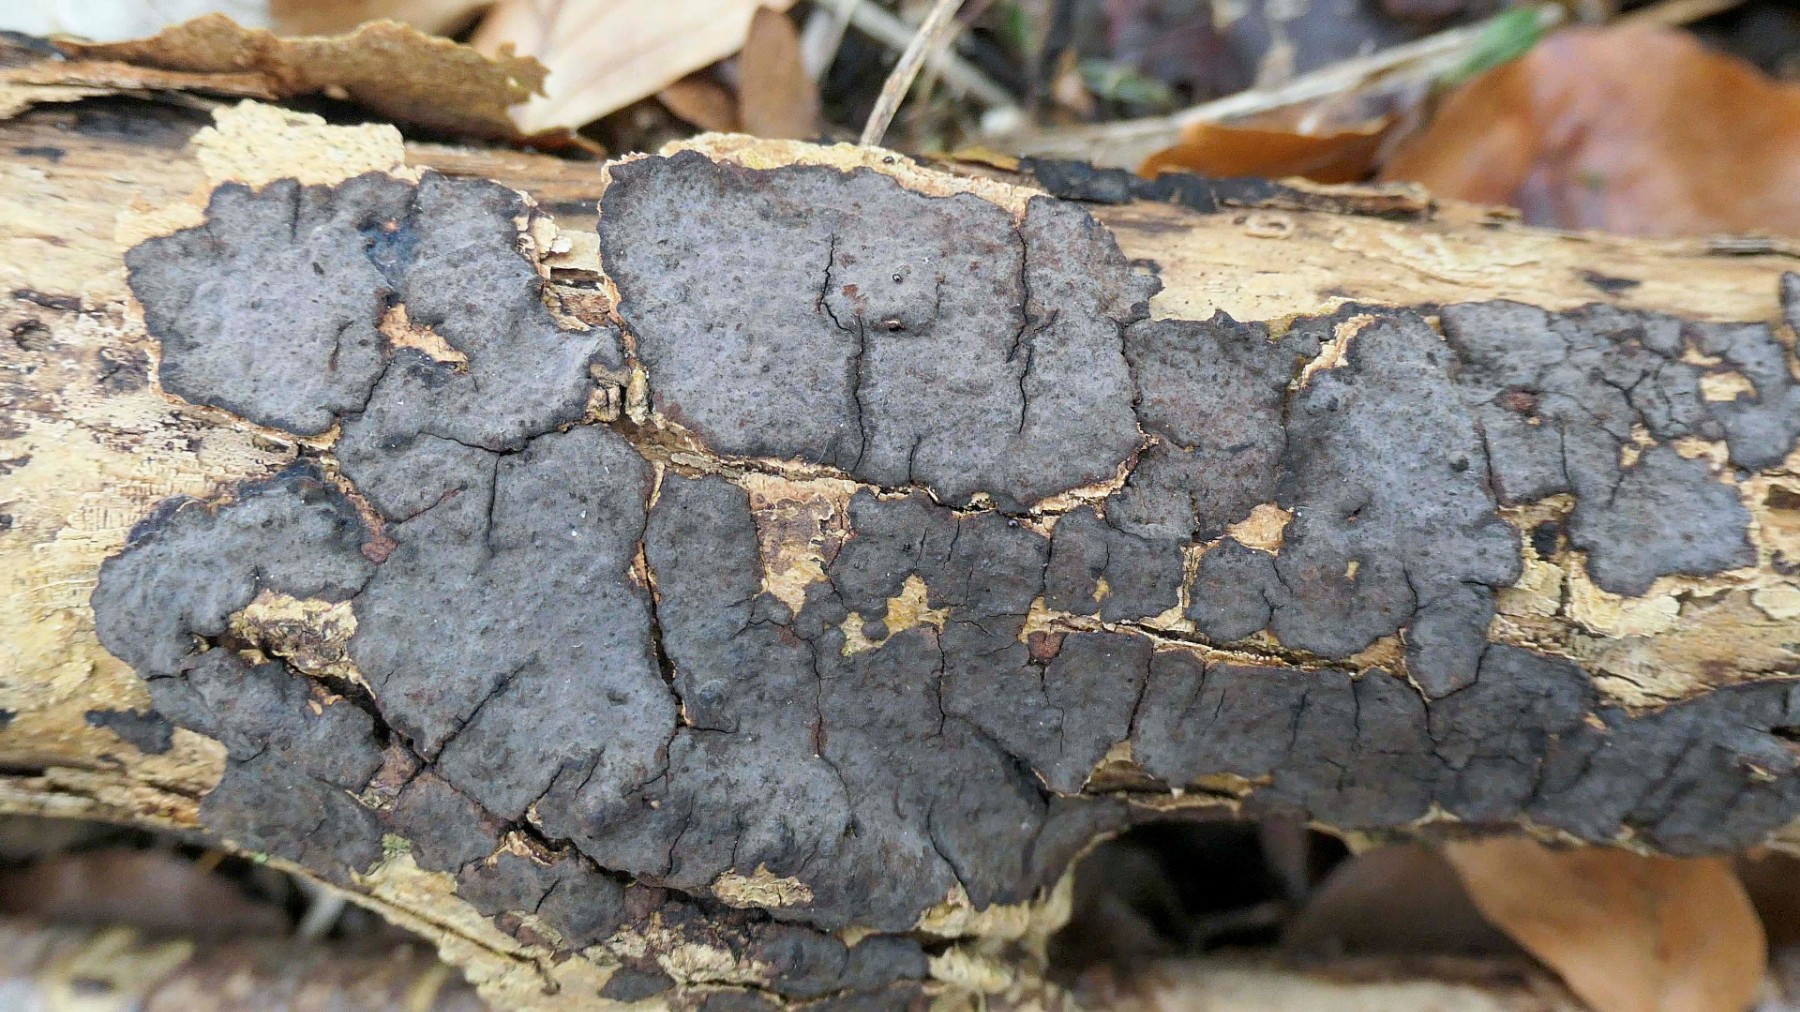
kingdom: Fungi
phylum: Basidiomycota
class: Agaricomycetes
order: Russulales
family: Peniophoraceae
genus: Peniophora
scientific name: Peniophora limitata
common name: mørkrandet voksskind
